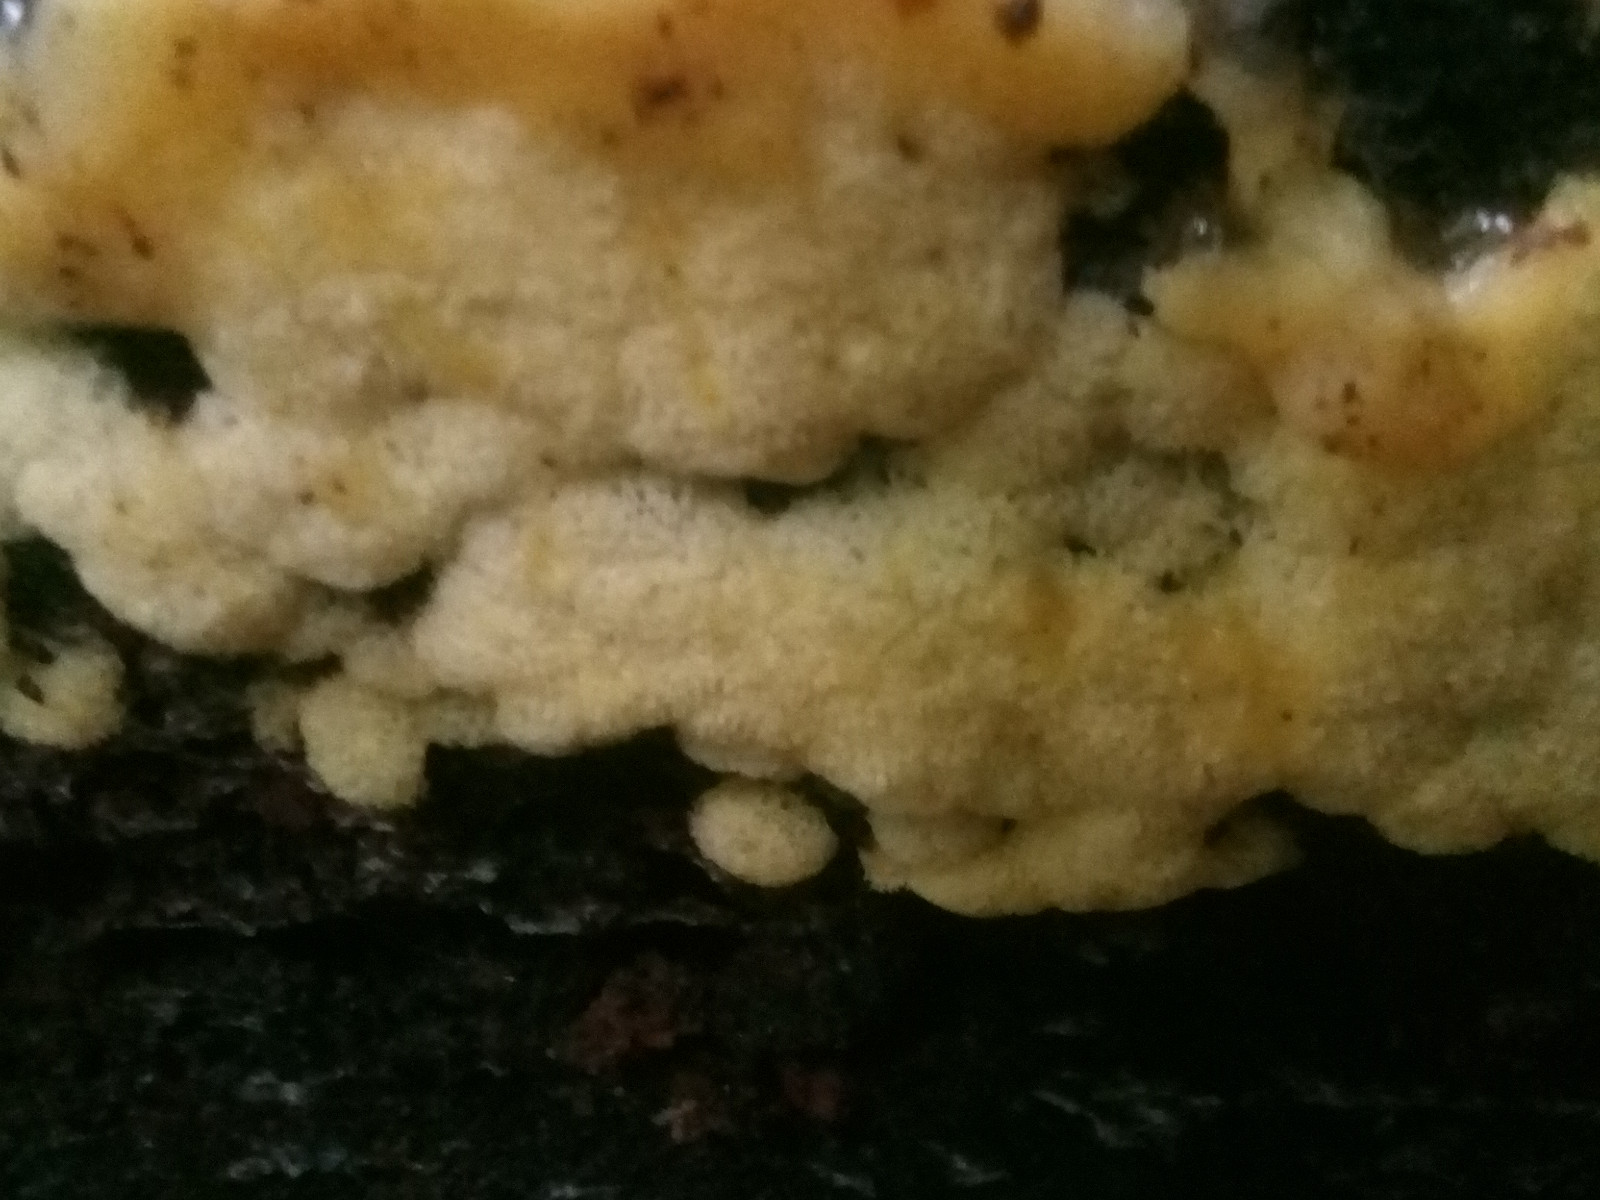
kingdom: Protozoa
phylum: Mycetozoa
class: Protosteliomycetes
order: Ceratiomyxales
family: Ceratiomyxaceae
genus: Ceratiomyxa
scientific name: Ceratiomyxa fruticulosa
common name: Honeycomb coral slime mold
